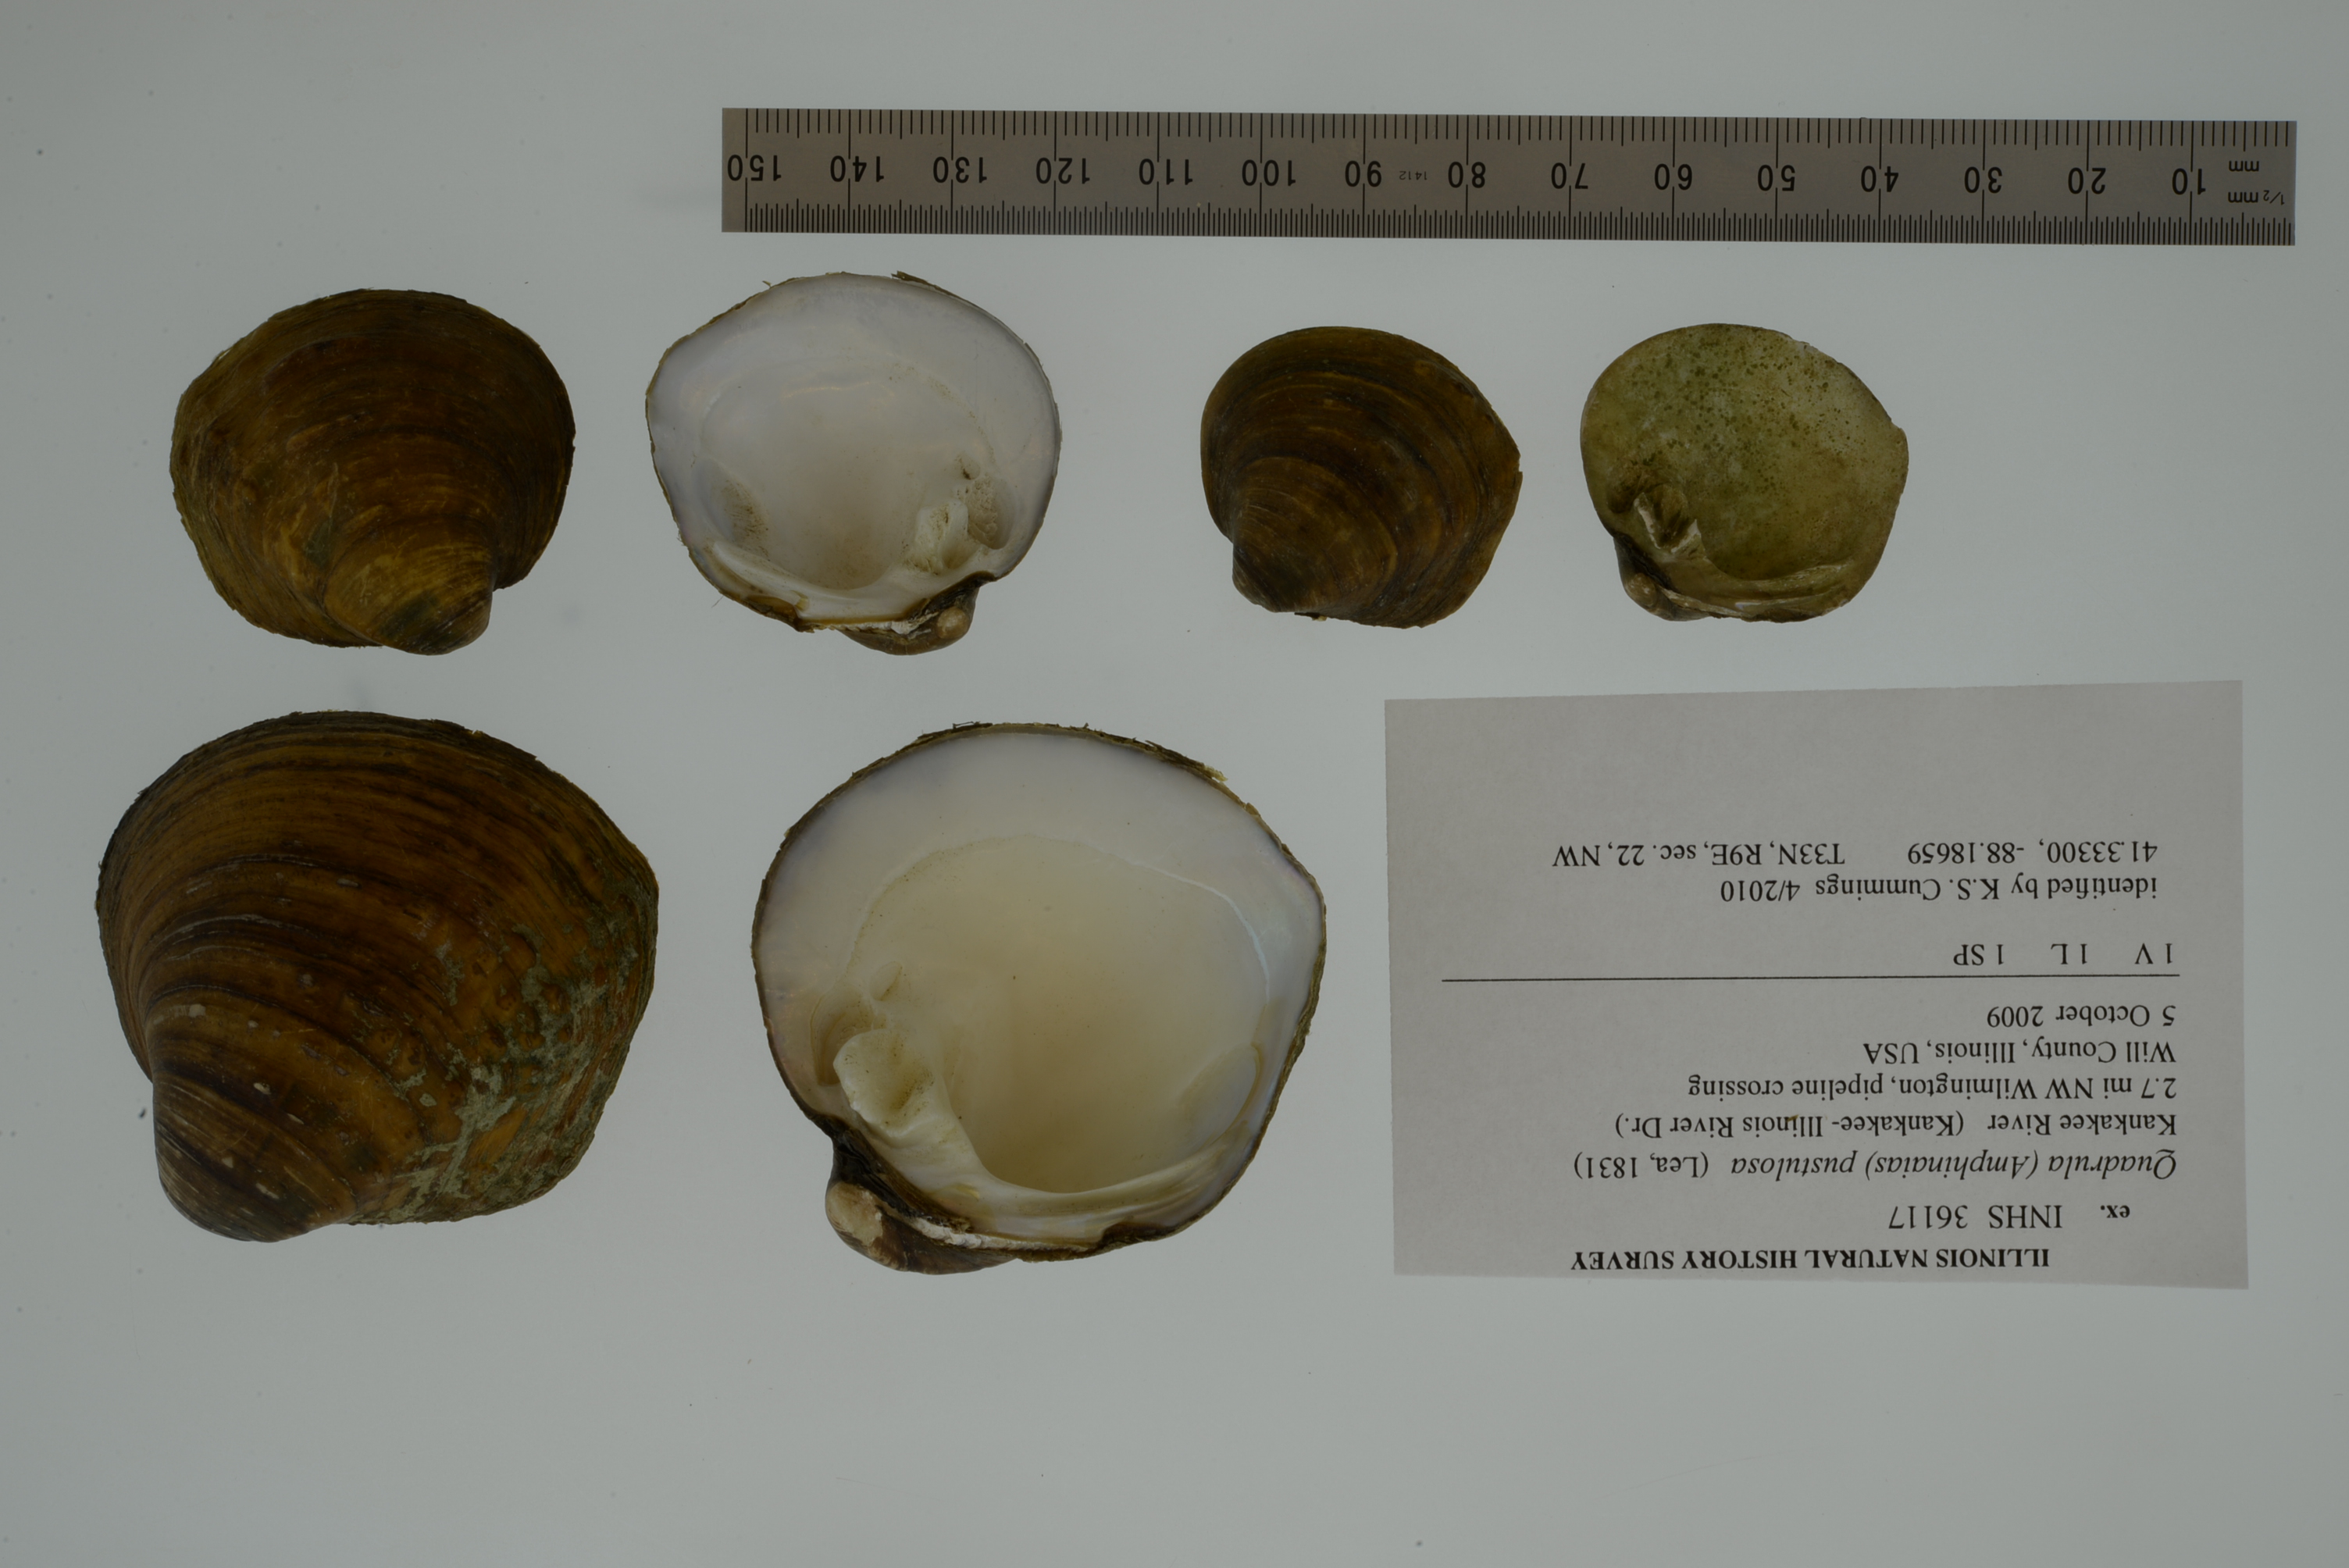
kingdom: Animalia
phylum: Mollusca
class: Bivalvia
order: Unionida
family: Unionidae
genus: Cyclonaias
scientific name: Cyclonaias pustulosa
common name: Pimpleback
